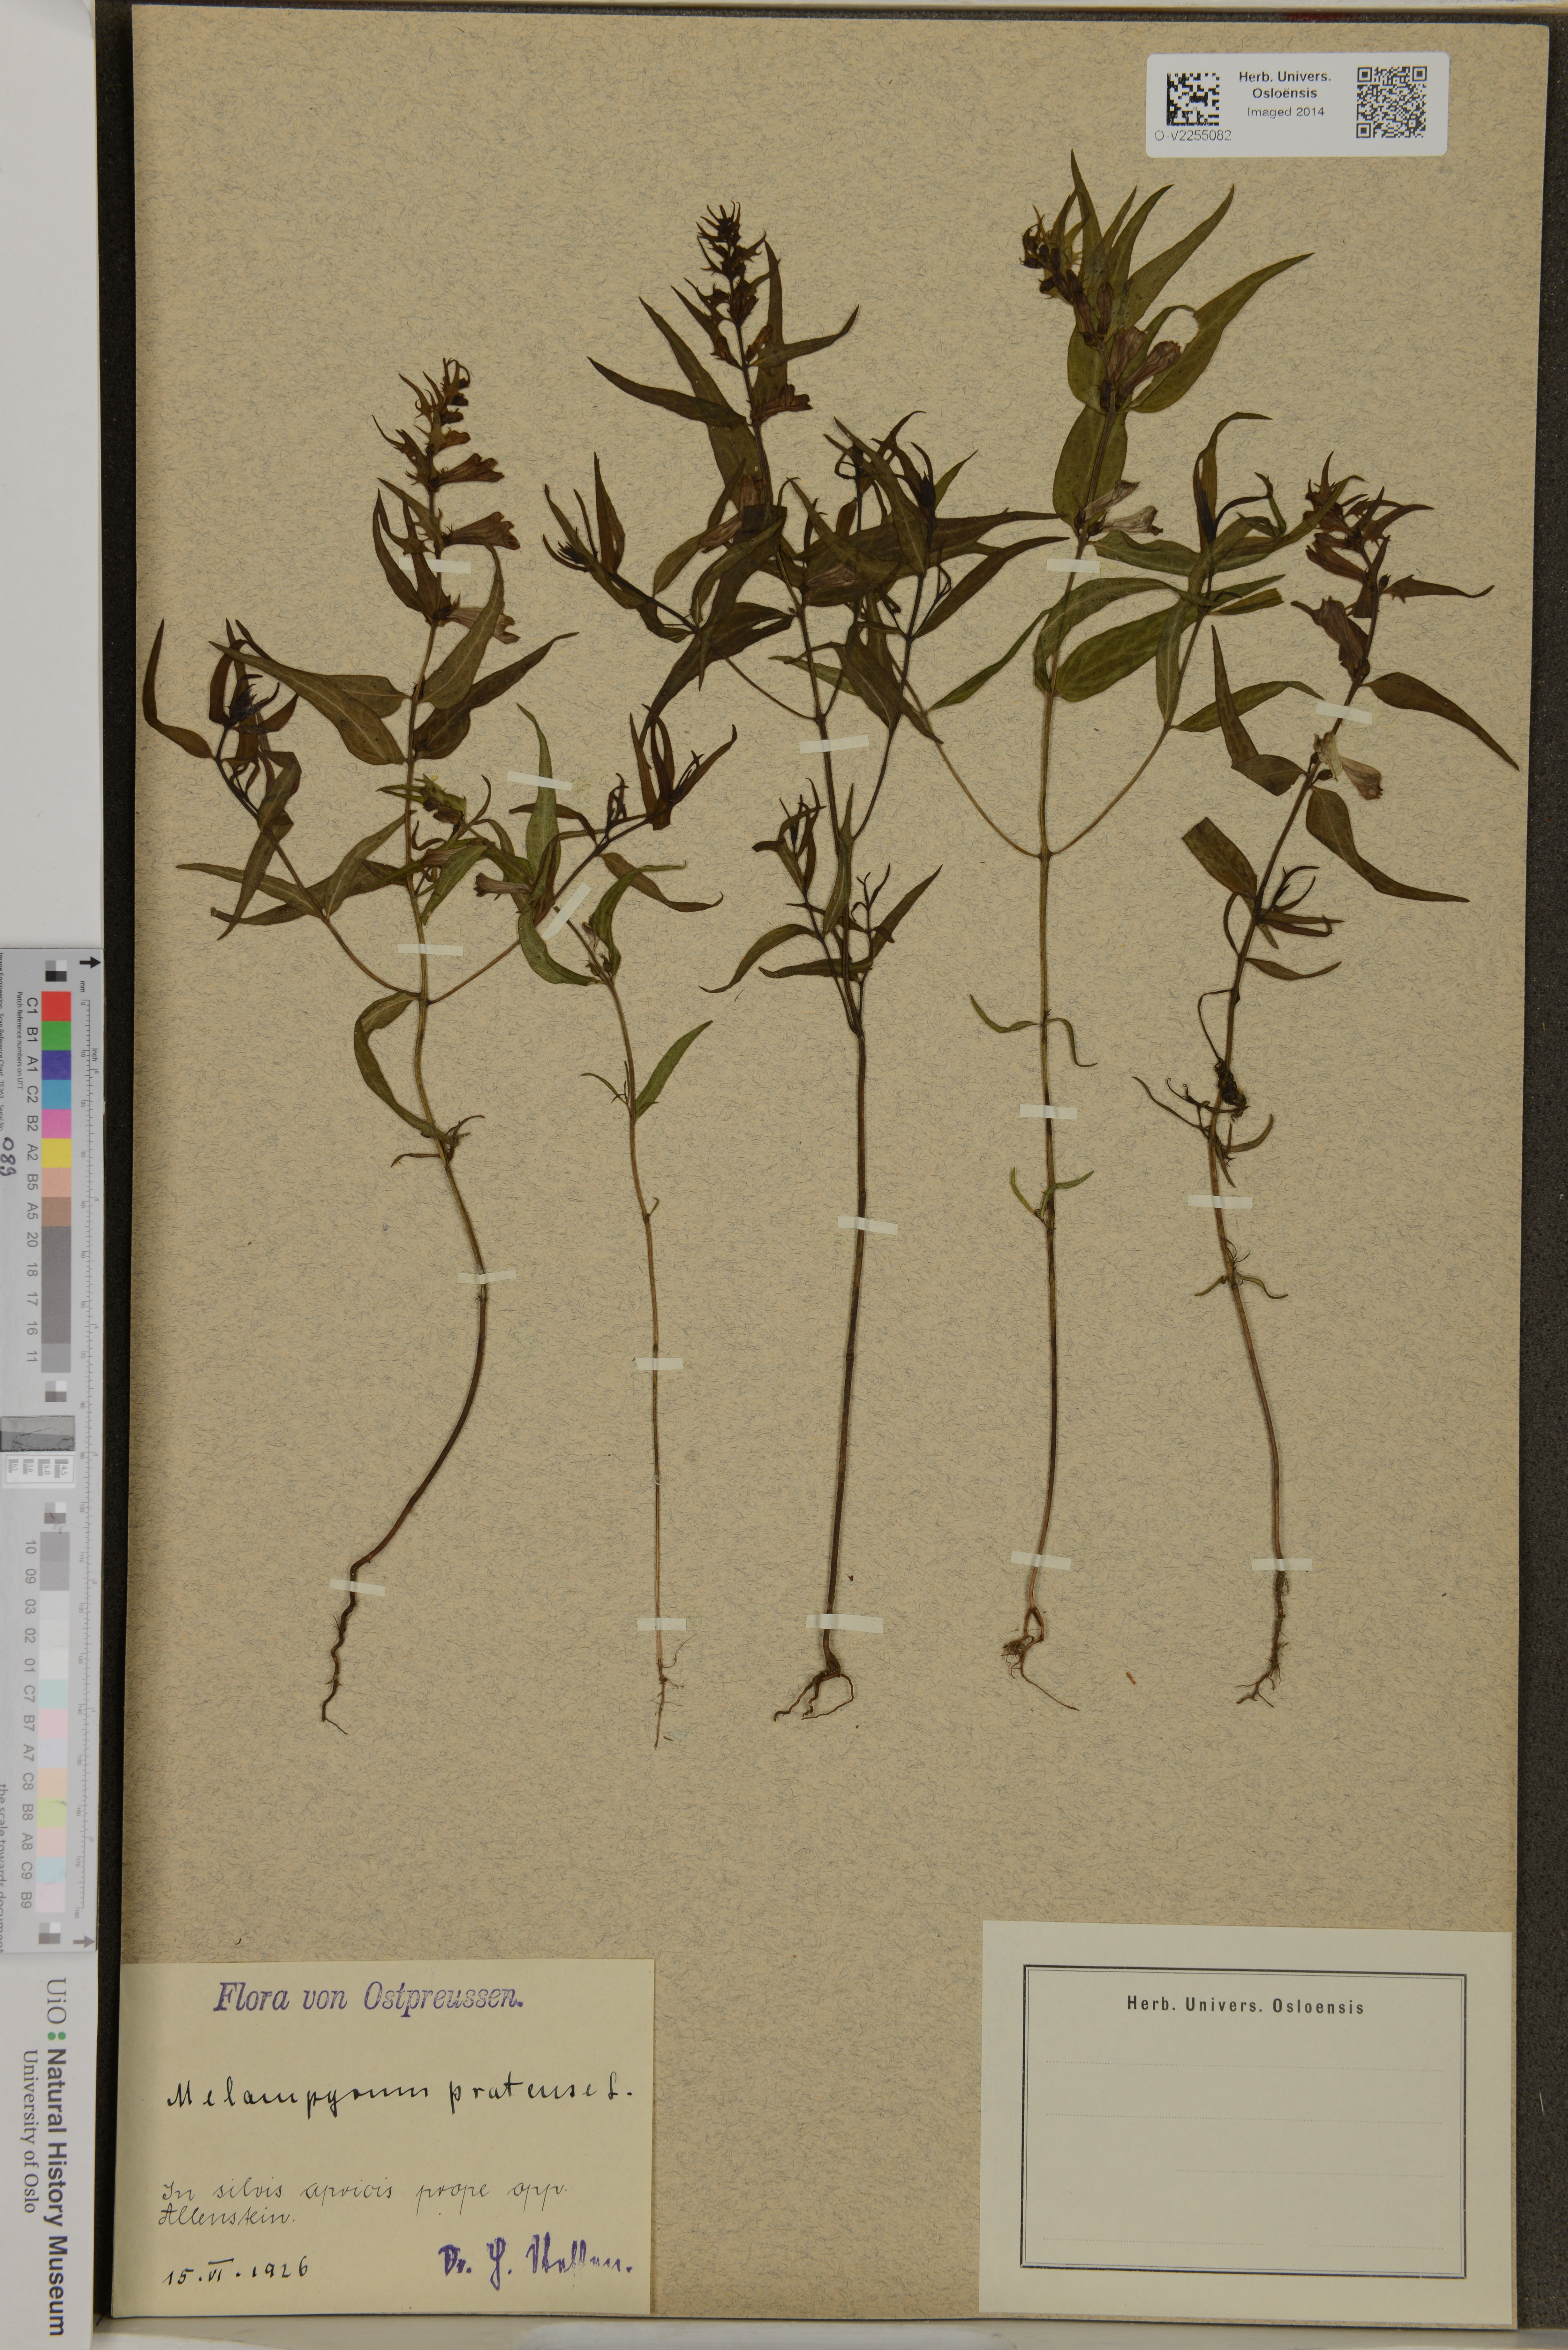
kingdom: Plantae
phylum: Tracheophyta
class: Magnoliopsida
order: Lamiales
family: Orobanchaceae
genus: Melampyrum
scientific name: Melampyrum pratense
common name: Common cow-wheat
